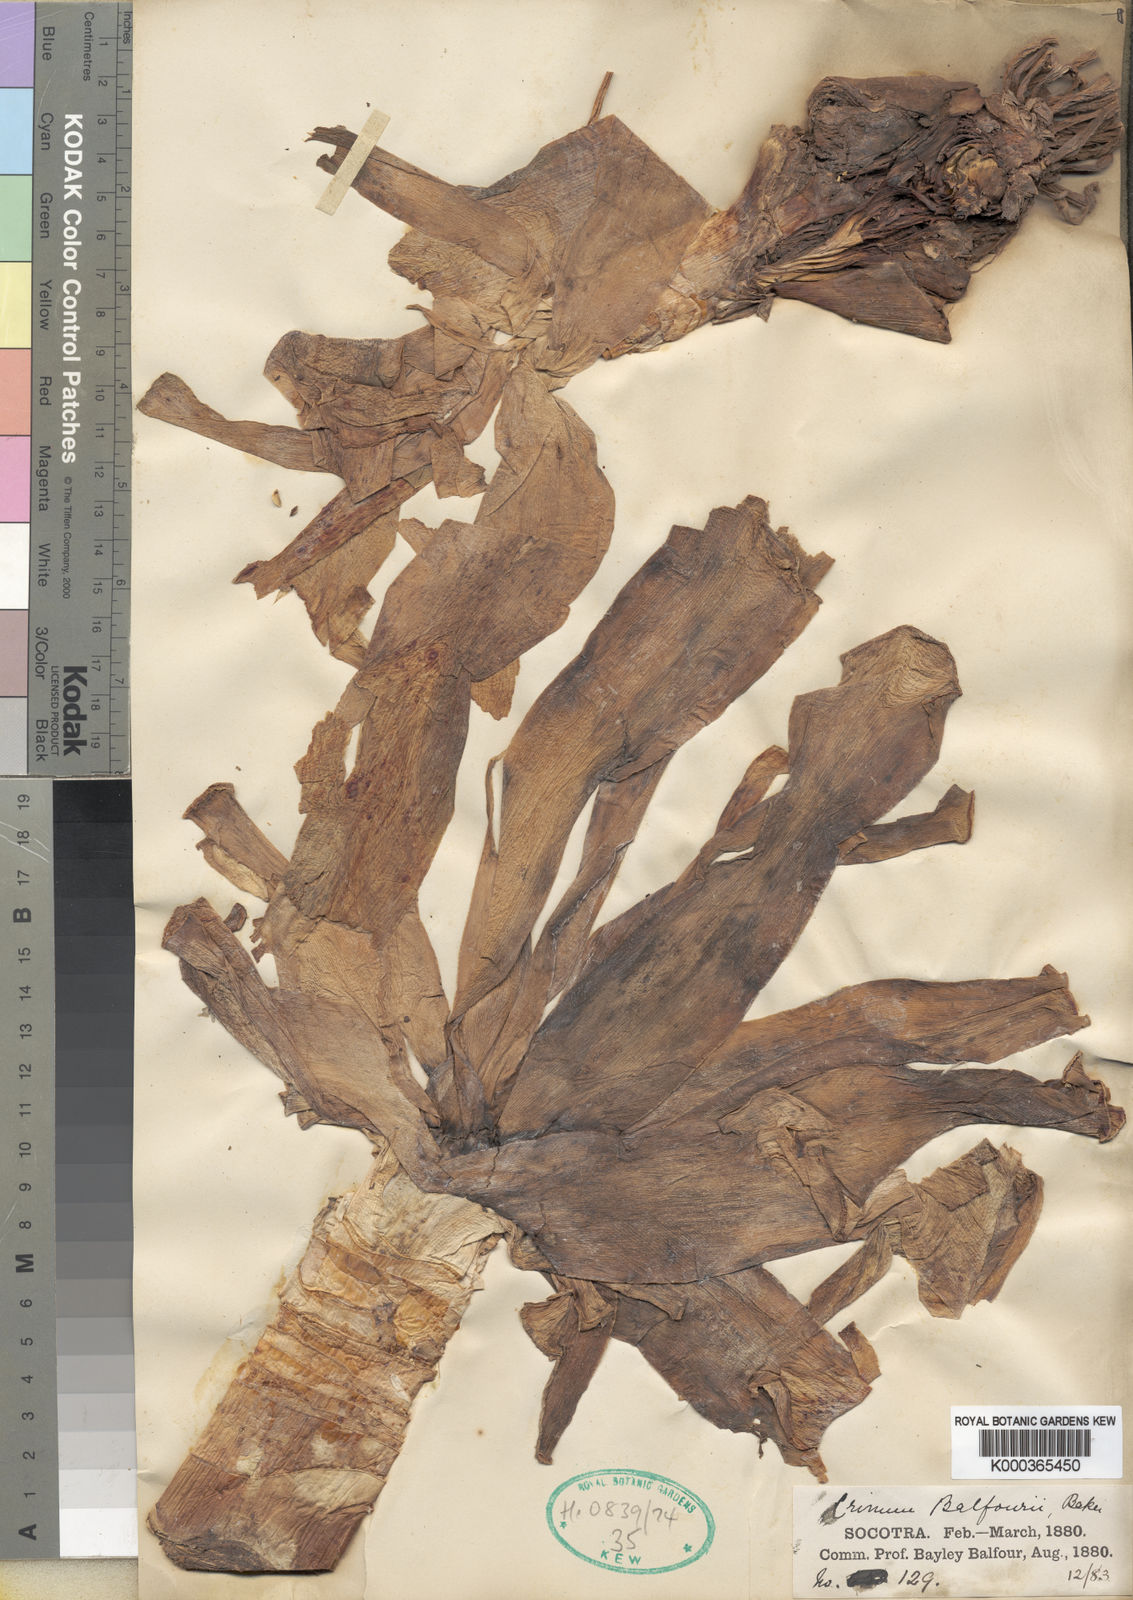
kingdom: Plantae
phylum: Tracheophyta
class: Liliopsida
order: Asparagales
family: Amaryllidaceae
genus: Crinum
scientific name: Crinum
